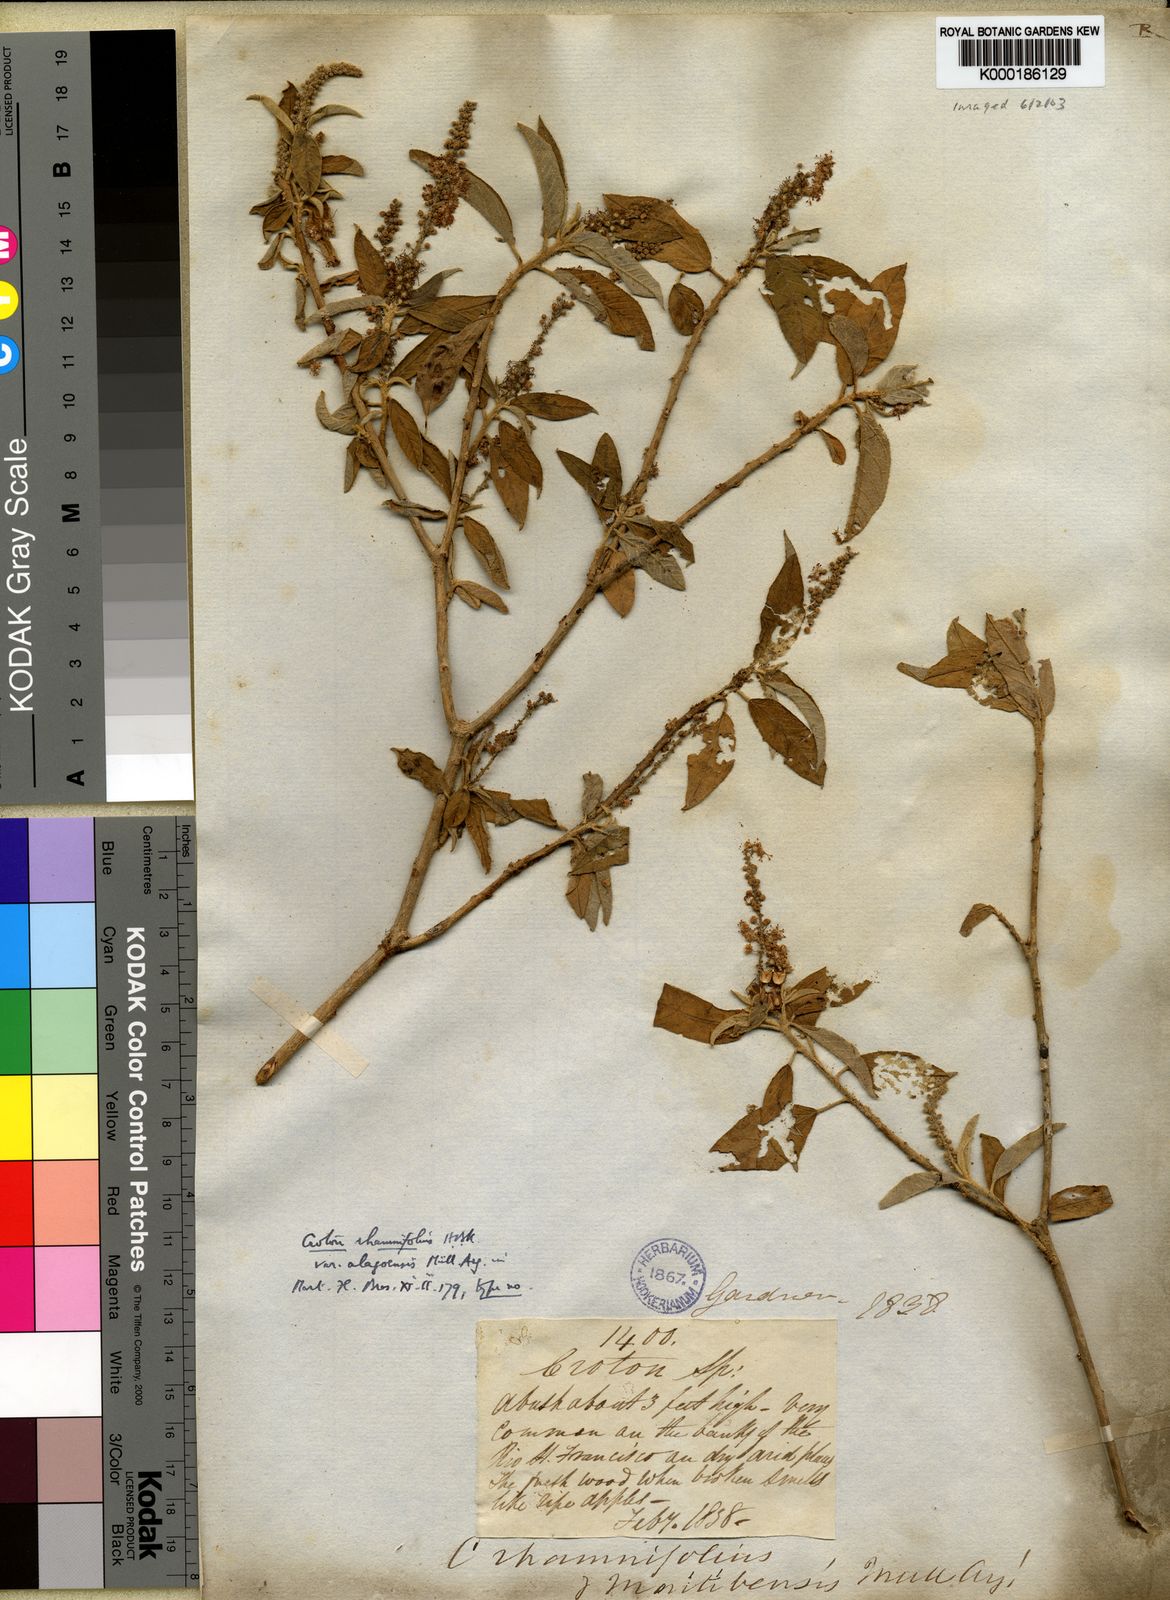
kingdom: Plantae
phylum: Tracheophyta
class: Magnoliopsida
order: Malpighiales
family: Euphorbiaceae
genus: Croton
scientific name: Croton heliotropiifolius
